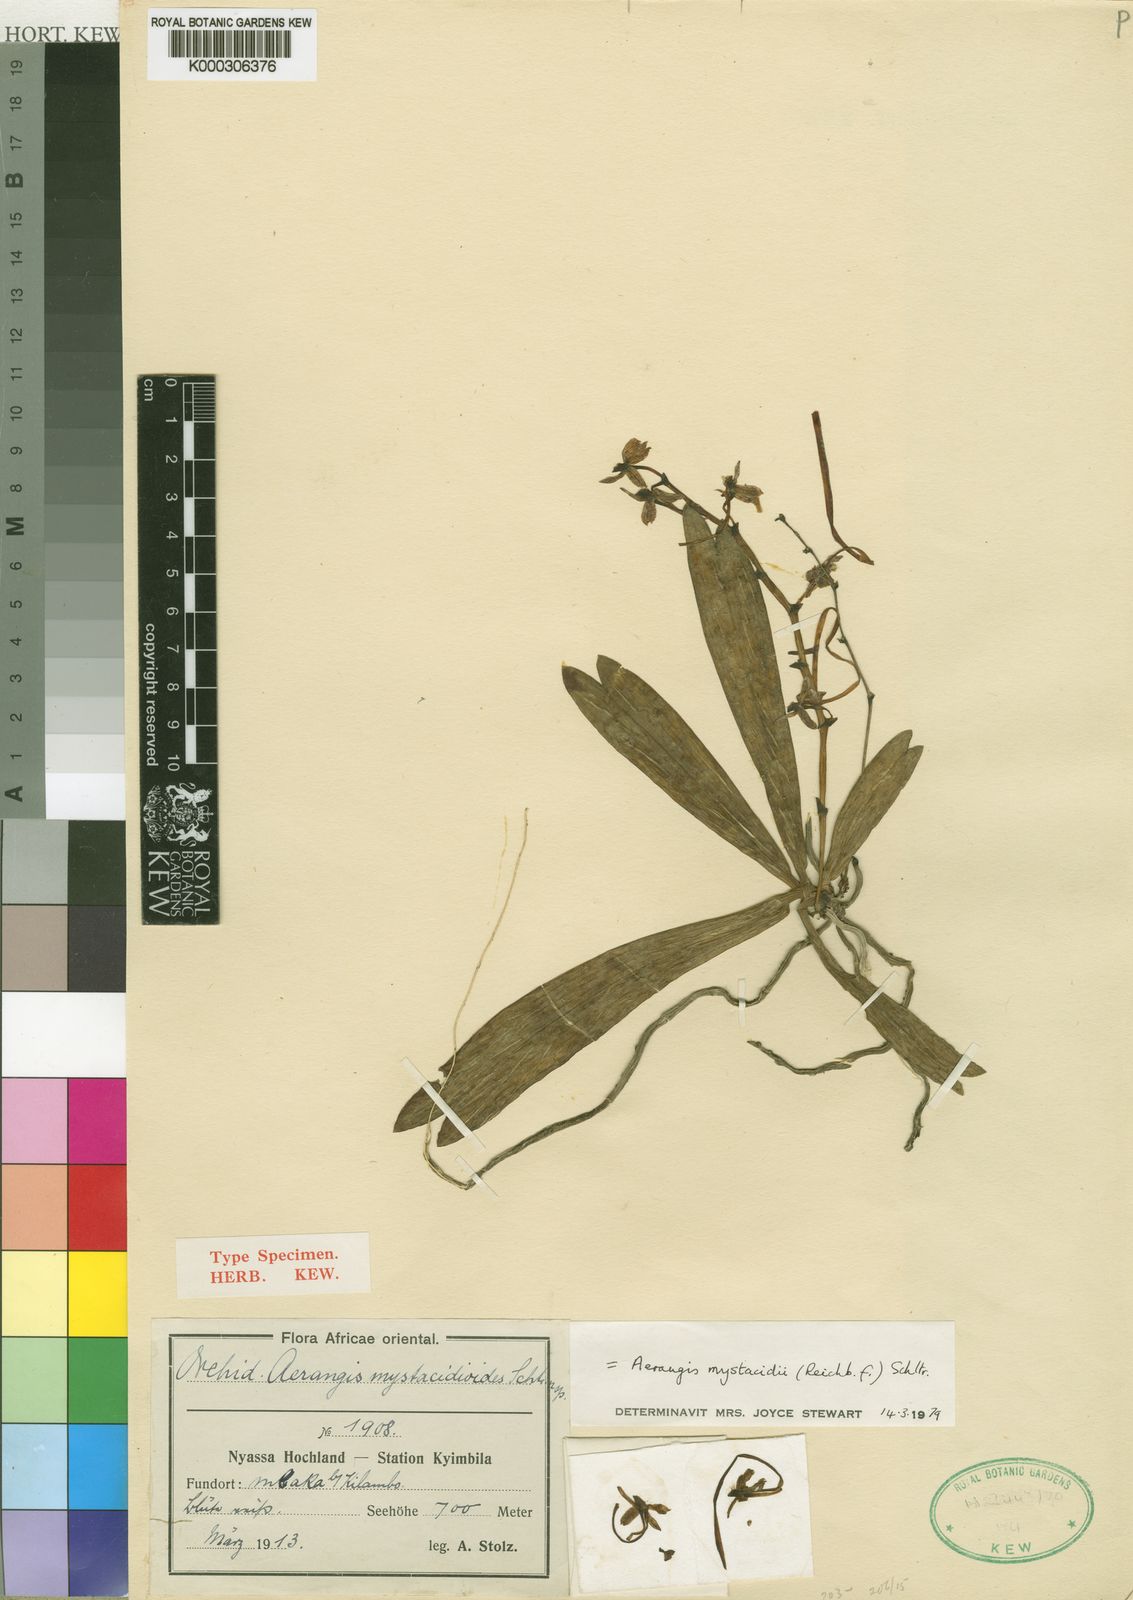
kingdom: Plantae
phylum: Tracheophyta
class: Liliopsida
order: Asparagales
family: Orchidaceae
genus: Aerangis
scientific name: Aerangis mystacidii
